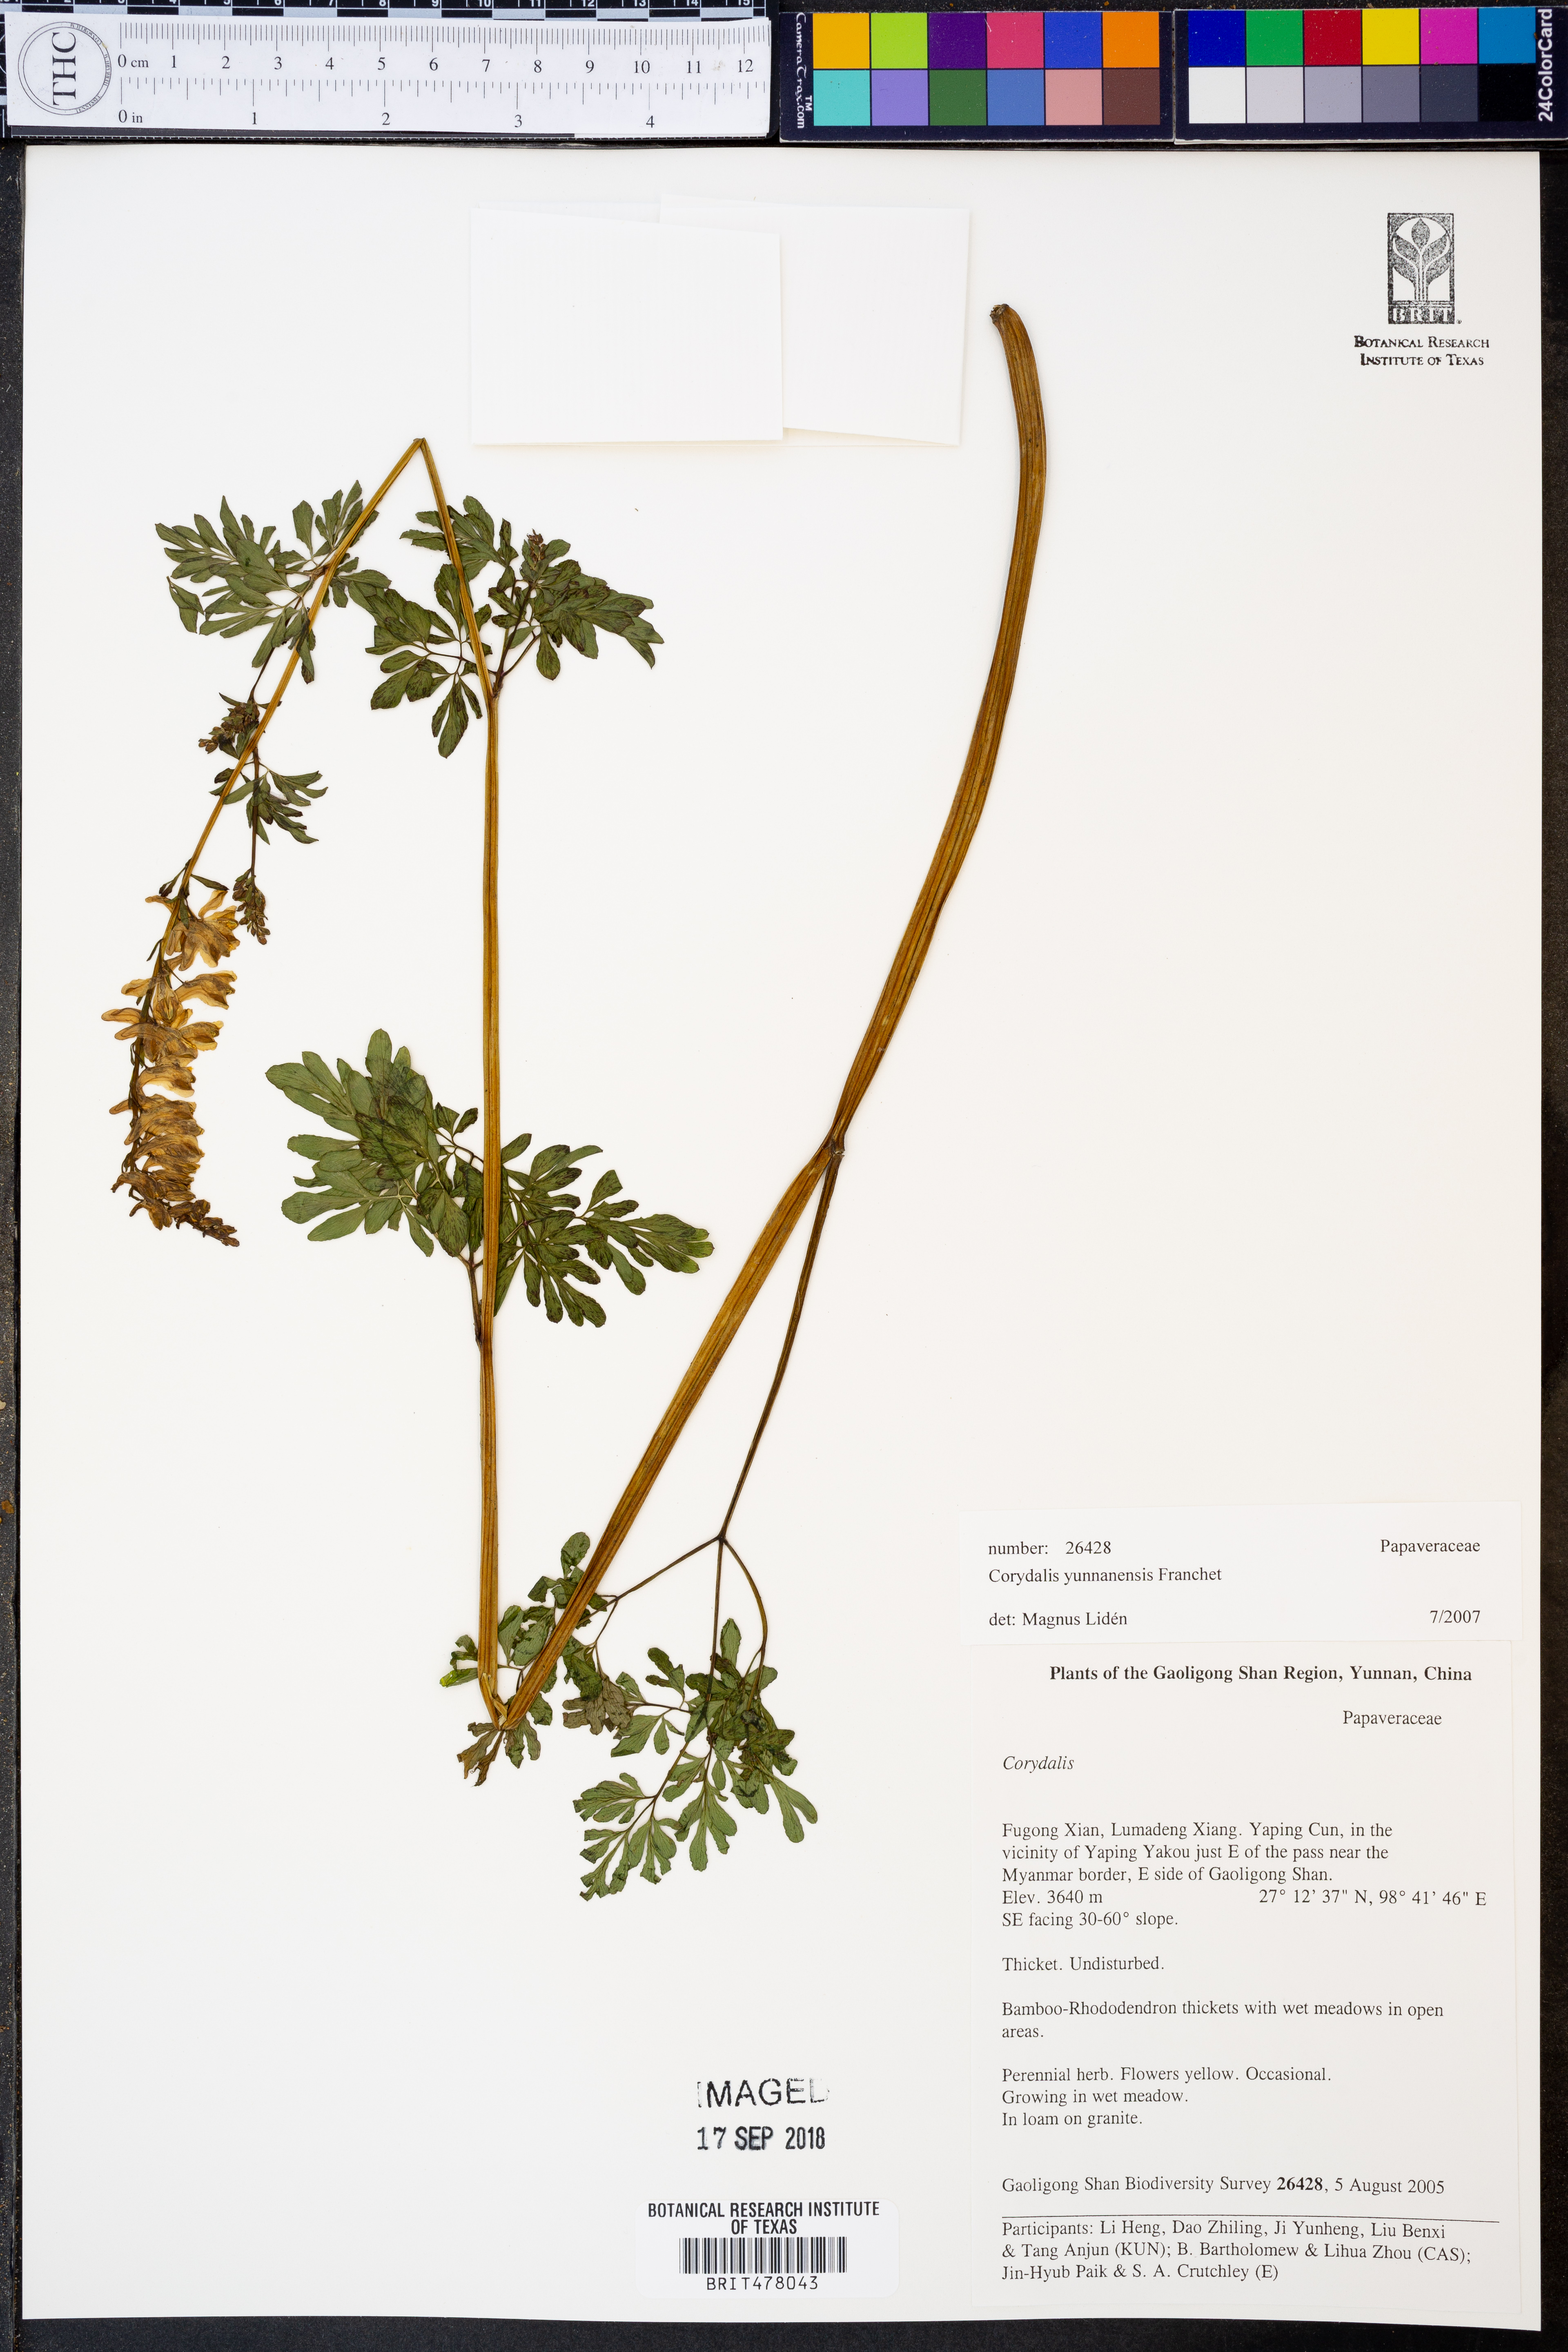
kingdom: Plantae
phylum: Tracheophyta
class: Magnoliopsida
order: Ranunculales
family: Papaveraceae
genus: Corydalis
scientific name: Corydalis yunnanensis
